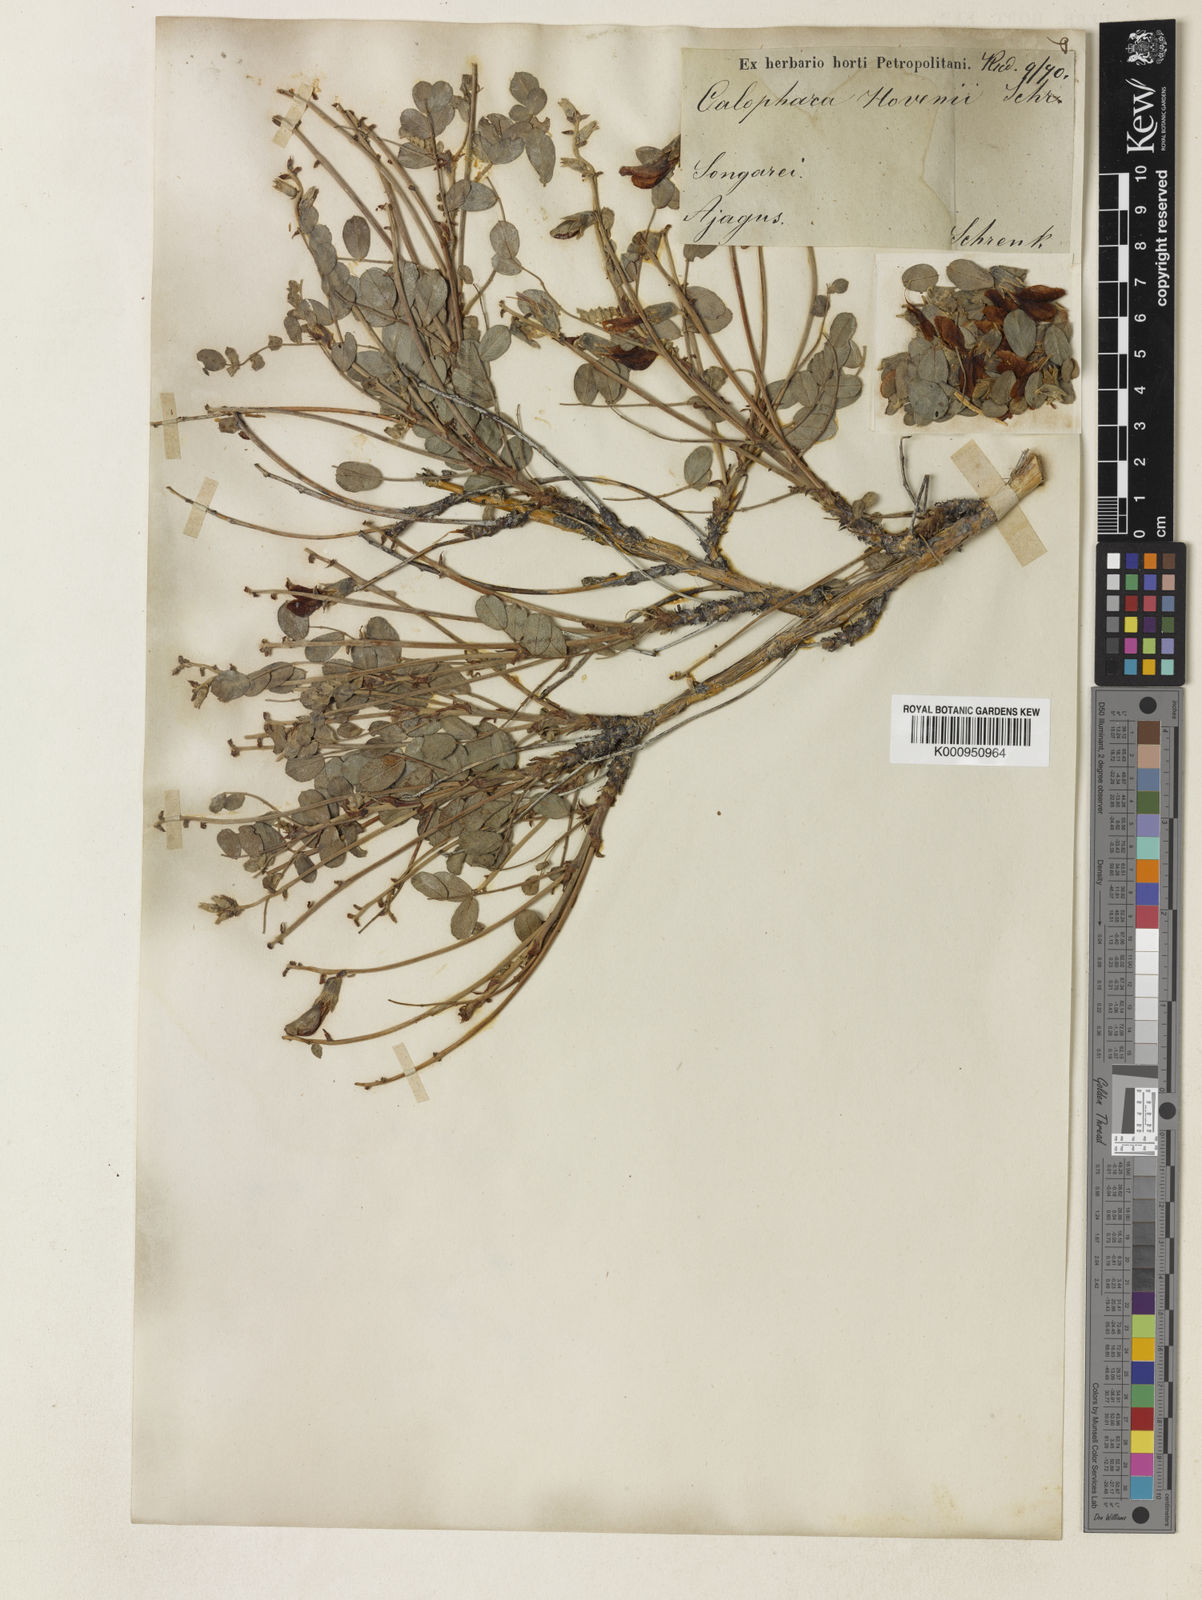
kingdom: Plantae
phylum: Tracheophyta
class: Magnoliopsida
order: Fabales
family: Fabaceae
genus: Calophaca
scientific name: Calophaca soongorica
